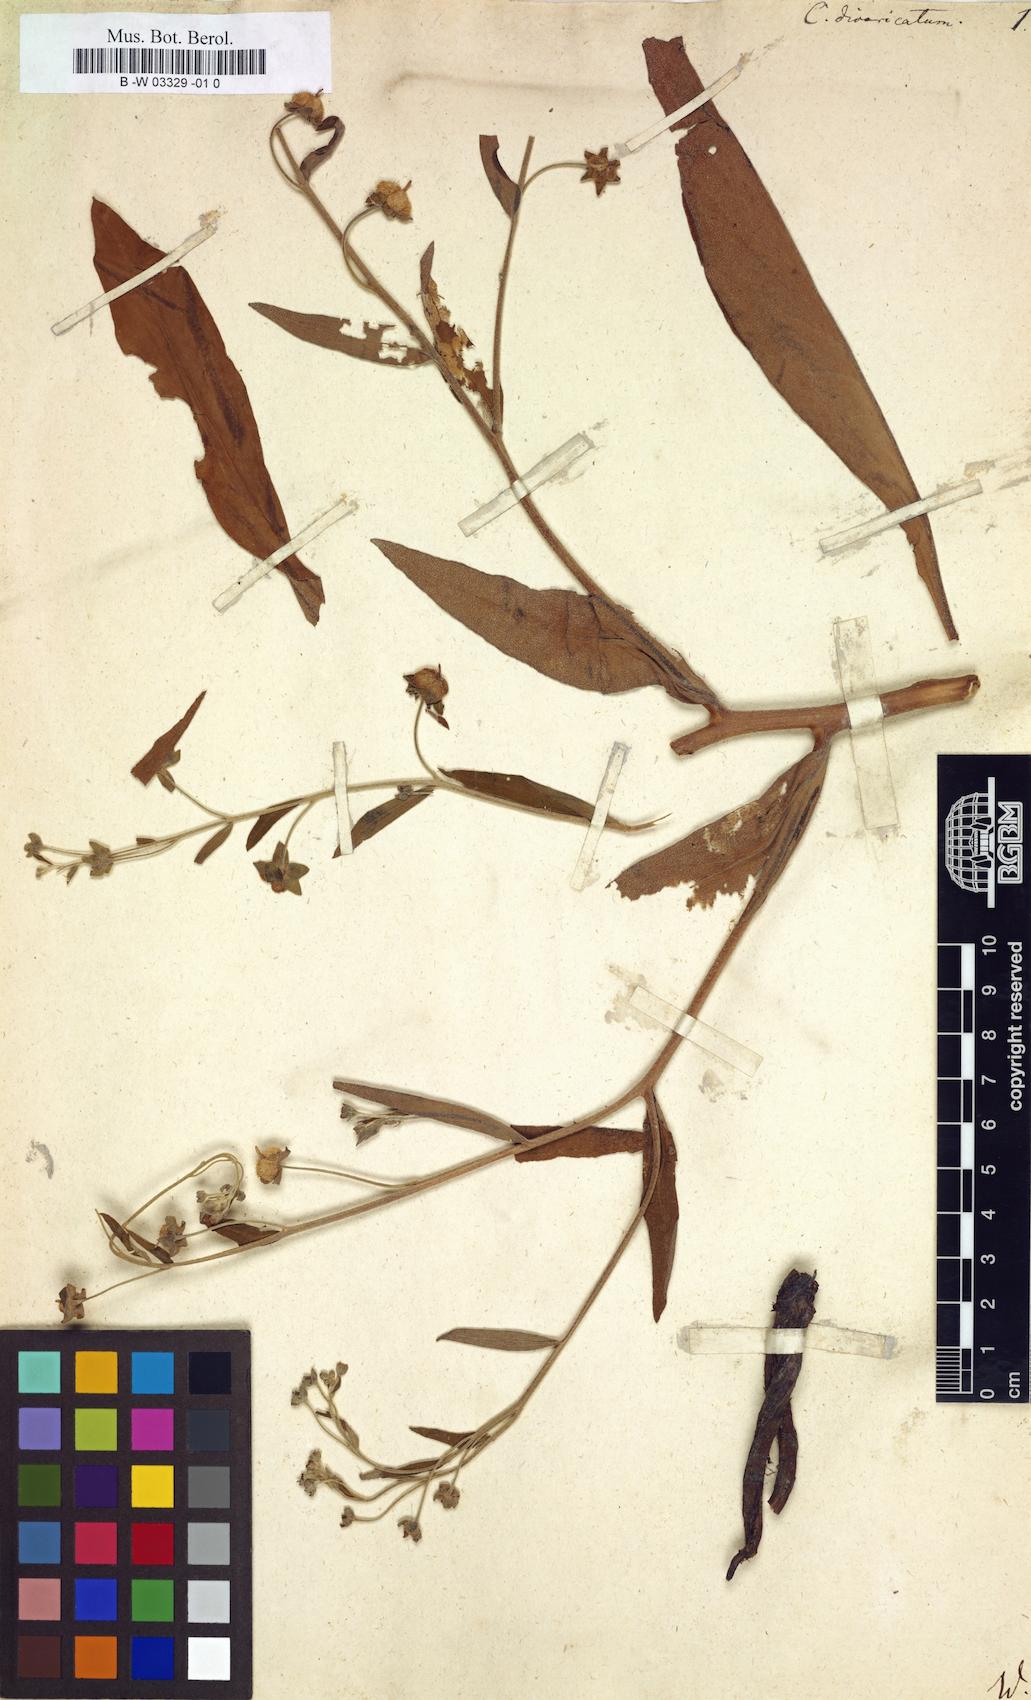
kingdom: Plantae
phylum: Tracheophyta
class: Magnoliopsida
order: Boraginales
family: Boraginaceae
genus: Cynoglossum
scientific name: Cynoglossum germanicum
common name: Green hound's-tongue
